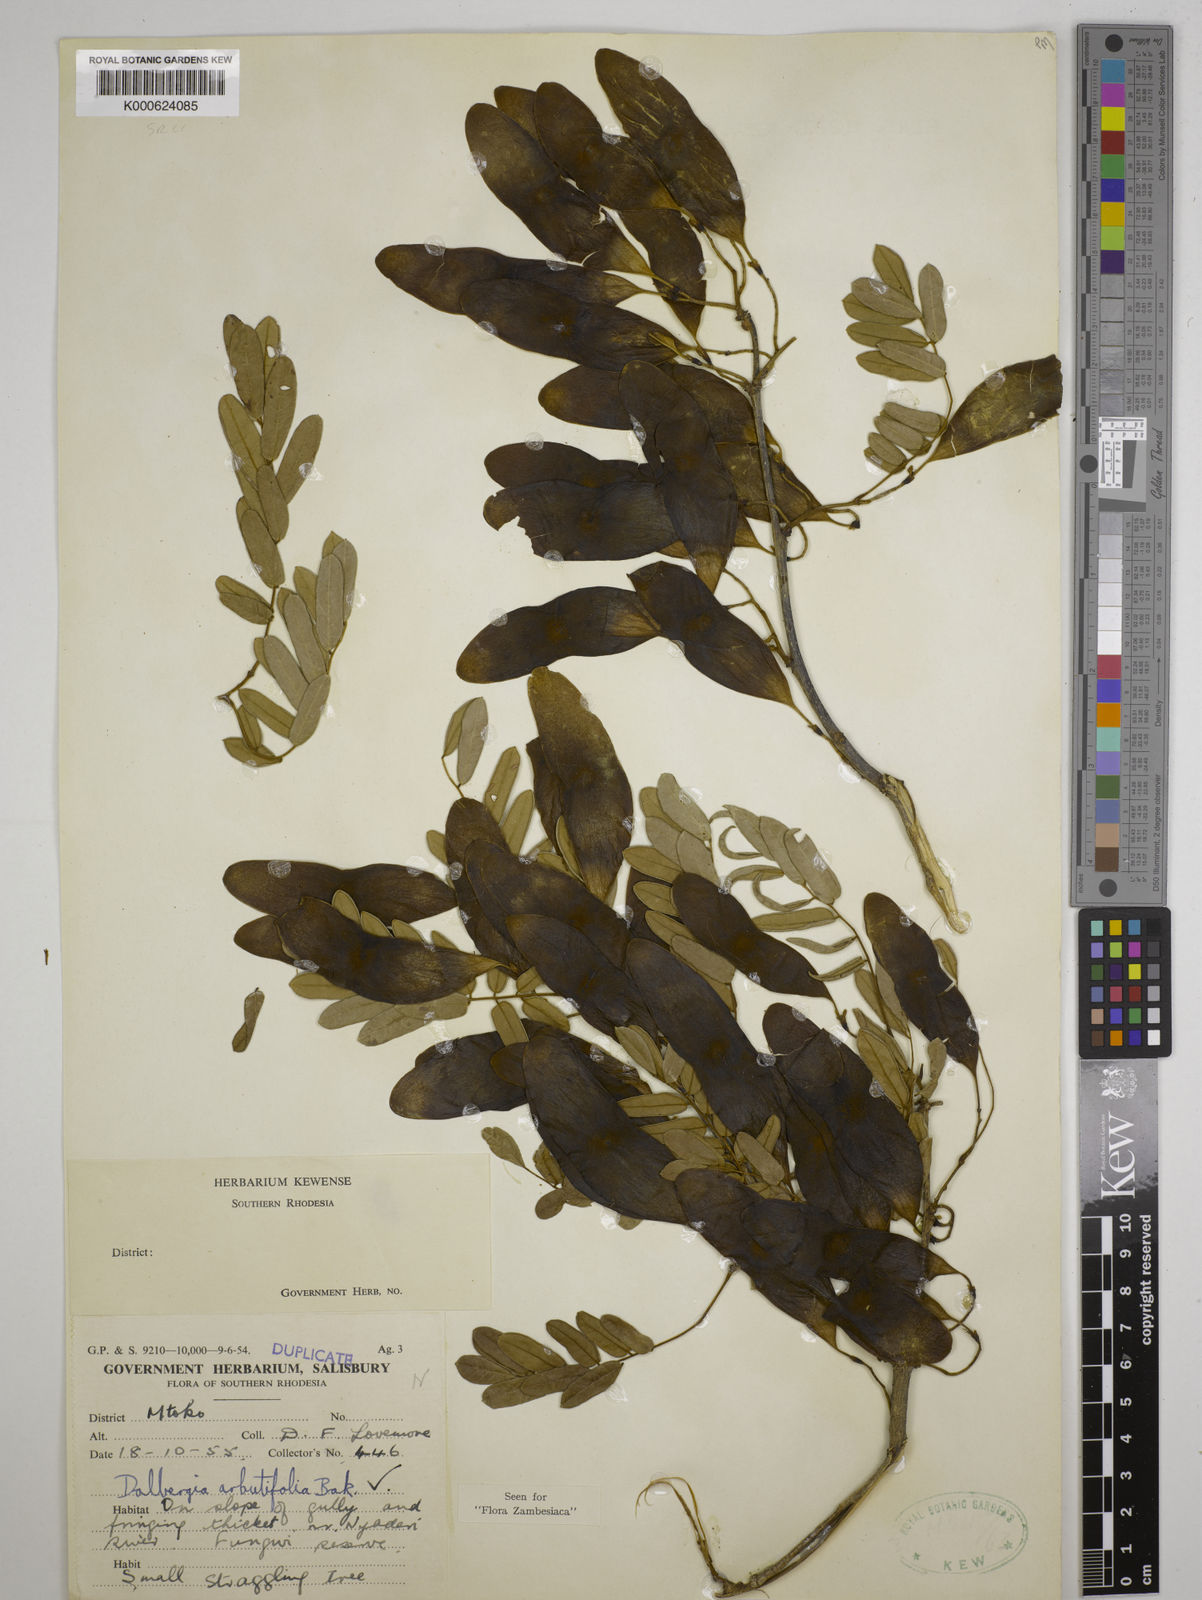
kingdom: Plantae
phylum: Tracheophyta
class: Magnoliopsida
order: Fabales
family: Fabaceae
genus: Dalbergia
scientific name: Dalbergia arbutifolia
